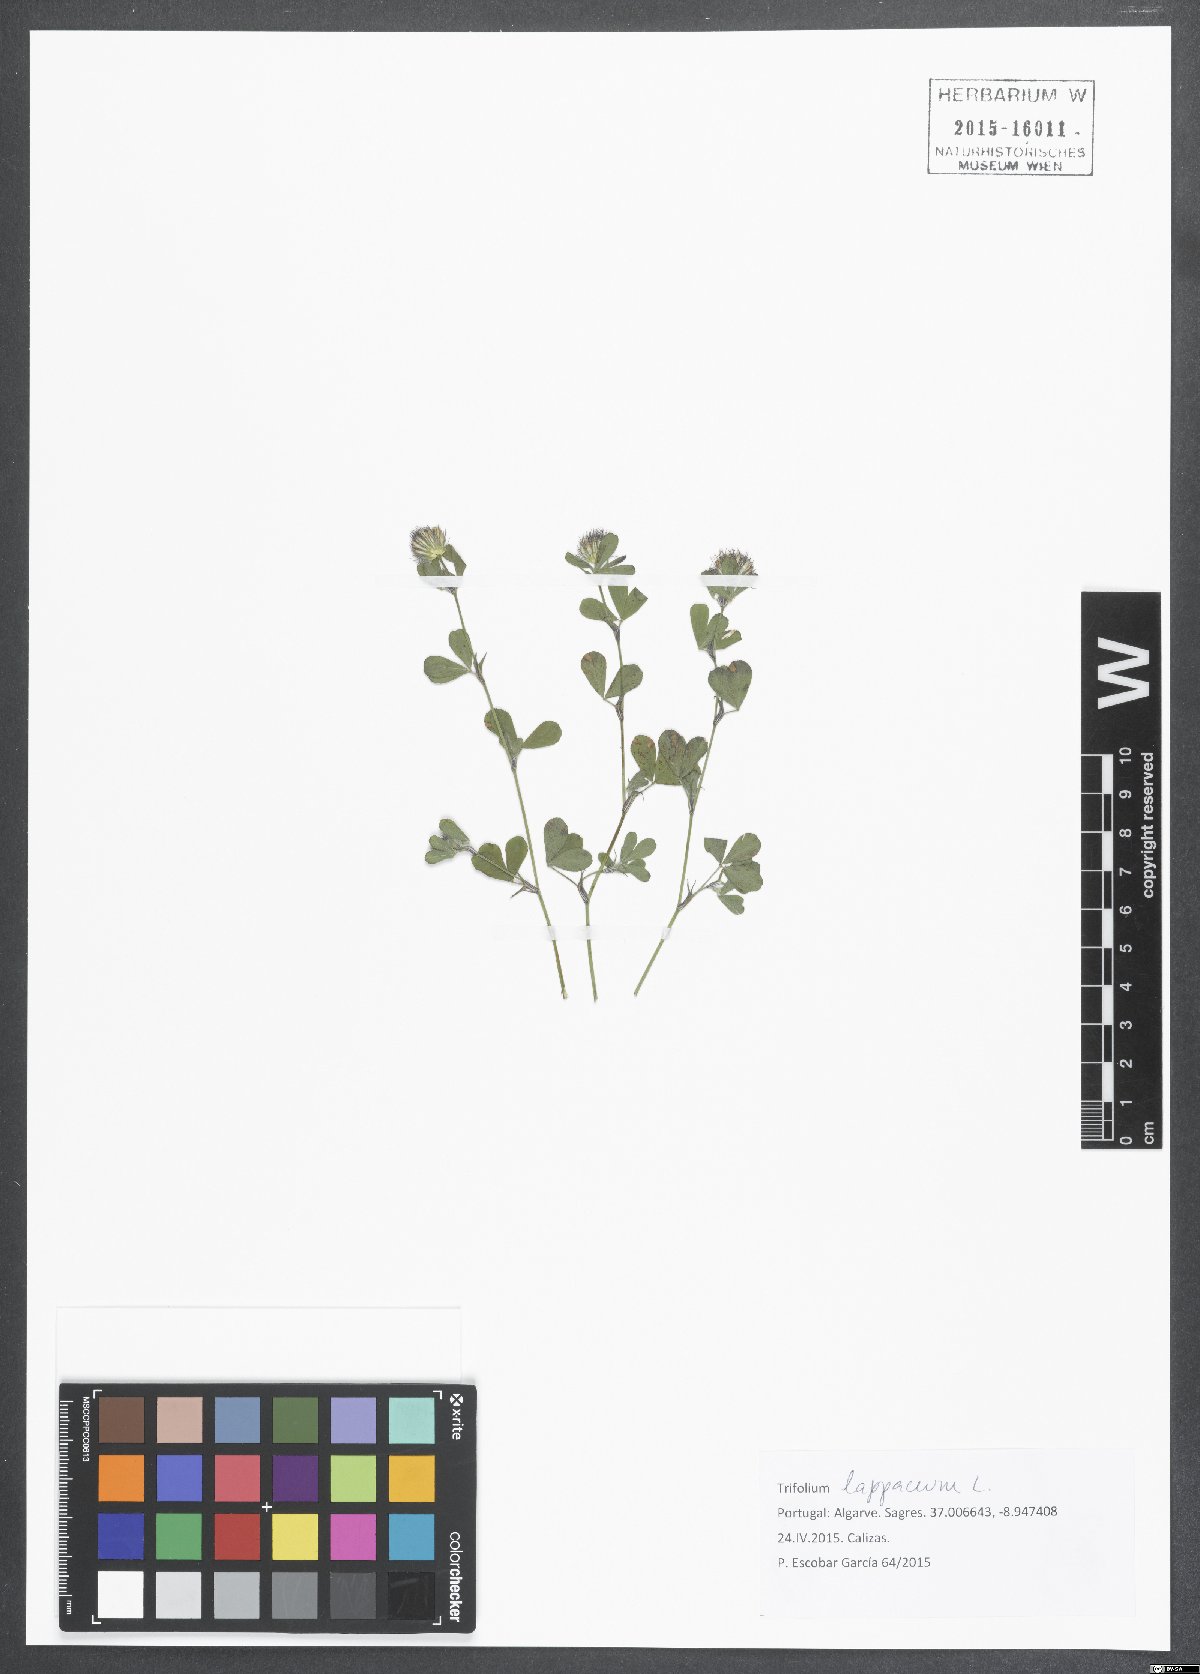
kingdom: Plantae
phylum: Tracheophyta
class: Magnoliopsida
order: Fabales
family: Fabaceae
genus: Trifolium
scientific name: Trifolium lappaceum
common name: Bur clover
